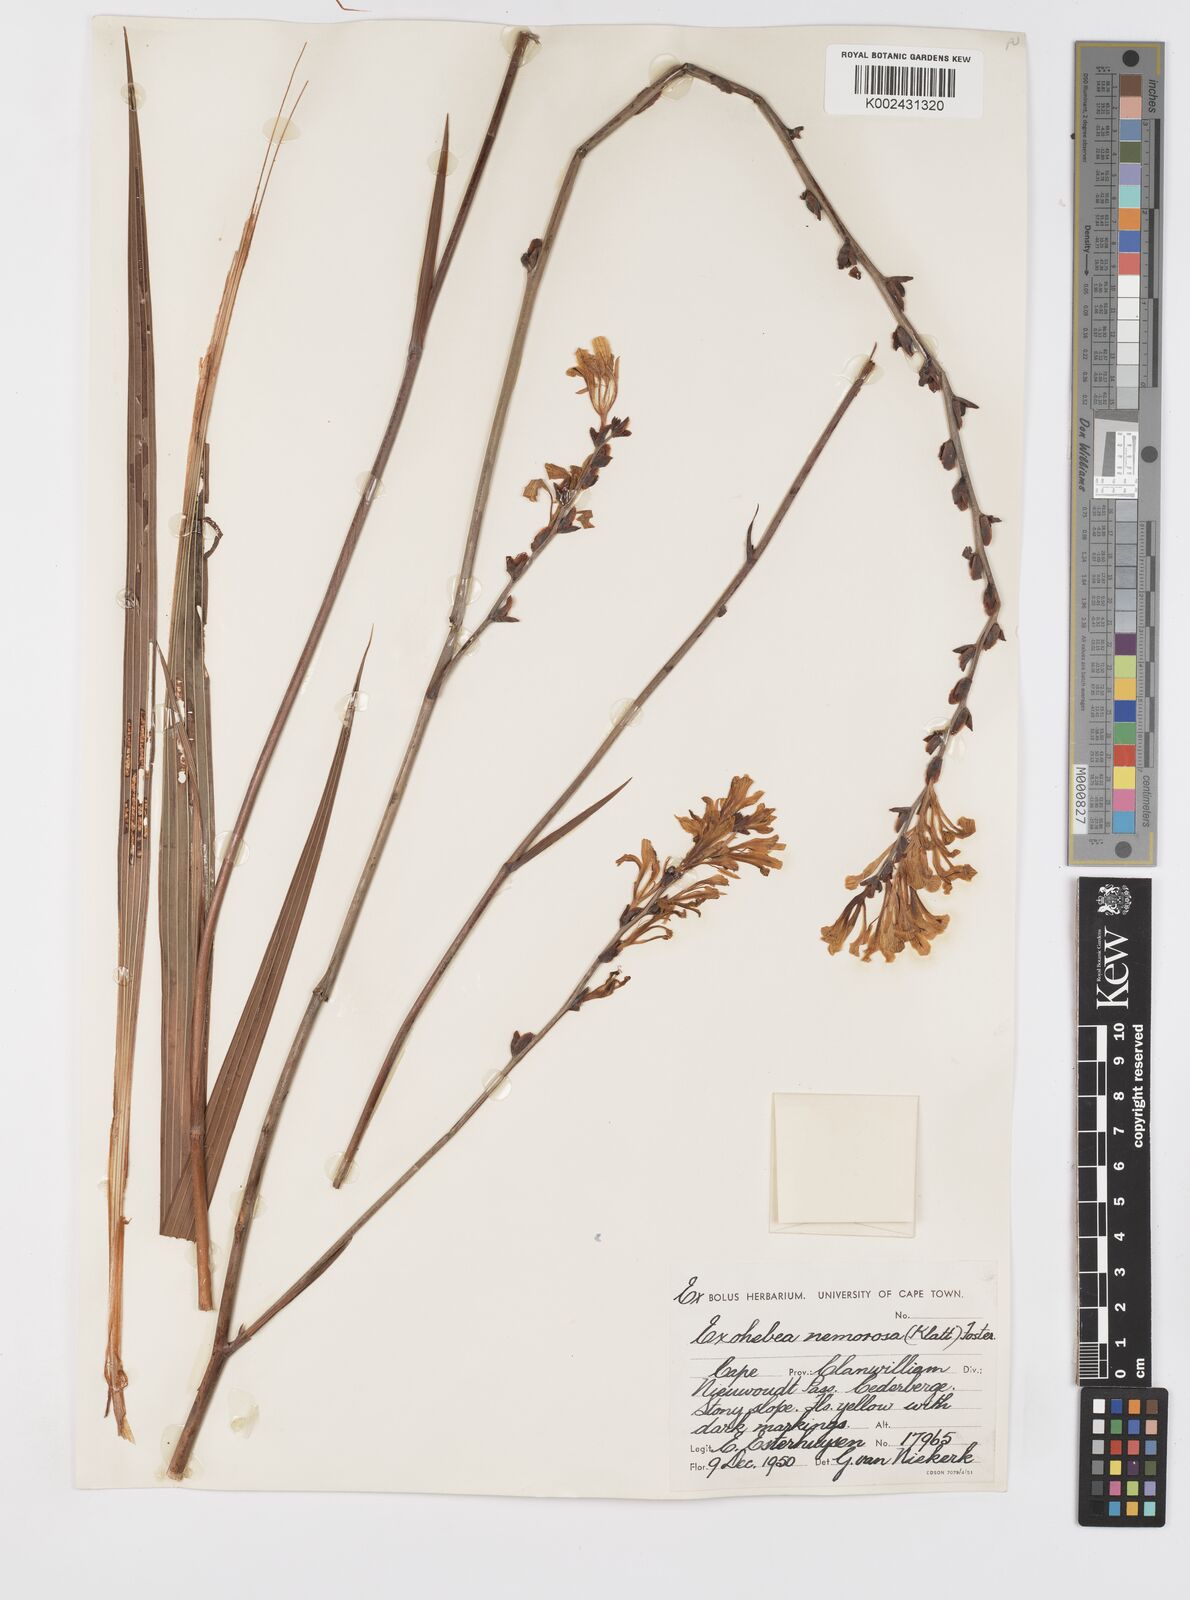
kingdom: Plantae
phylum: Tracheophyta
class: Liliopsida
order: Asparagales
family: Iridaceae
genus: Tritoniopsis
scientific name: Tritoniopsis nemorosa
